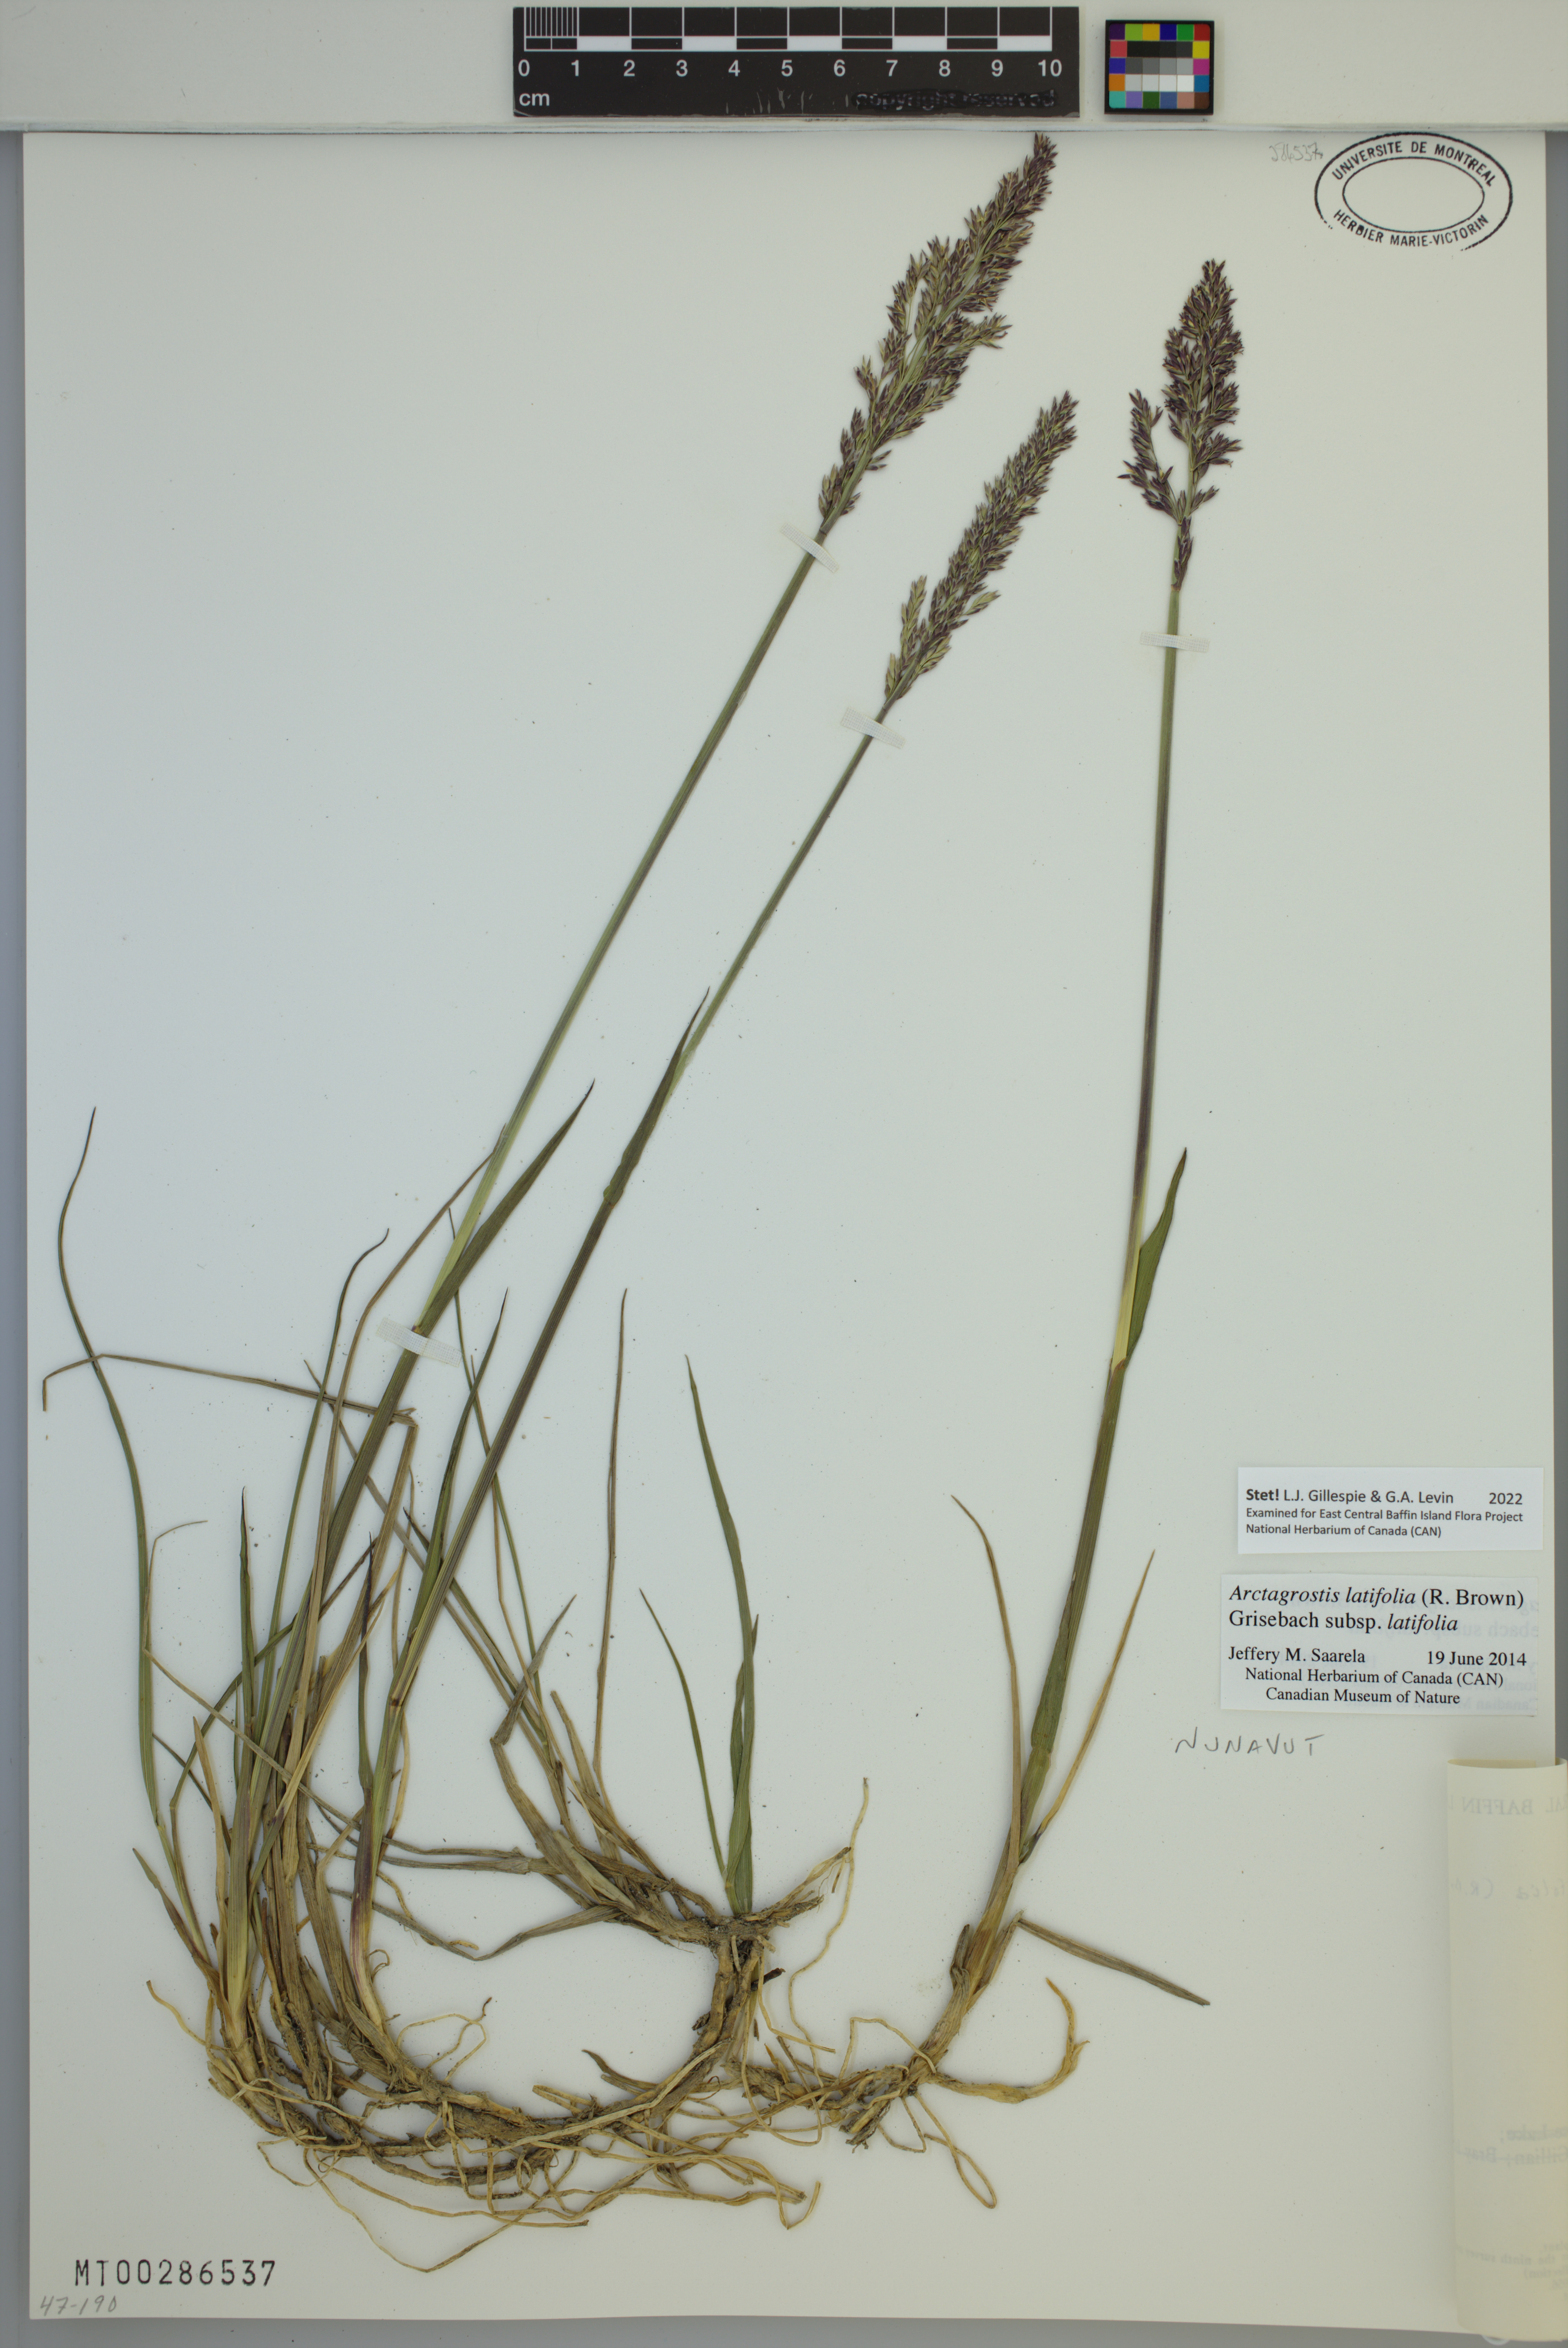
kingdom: Plantae
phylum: Tracheophyta
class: Liliopsida
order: Poales
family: Poaceae
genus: Arctagrostis
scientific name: Arctagrostis latifolia
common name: Arctic grass
